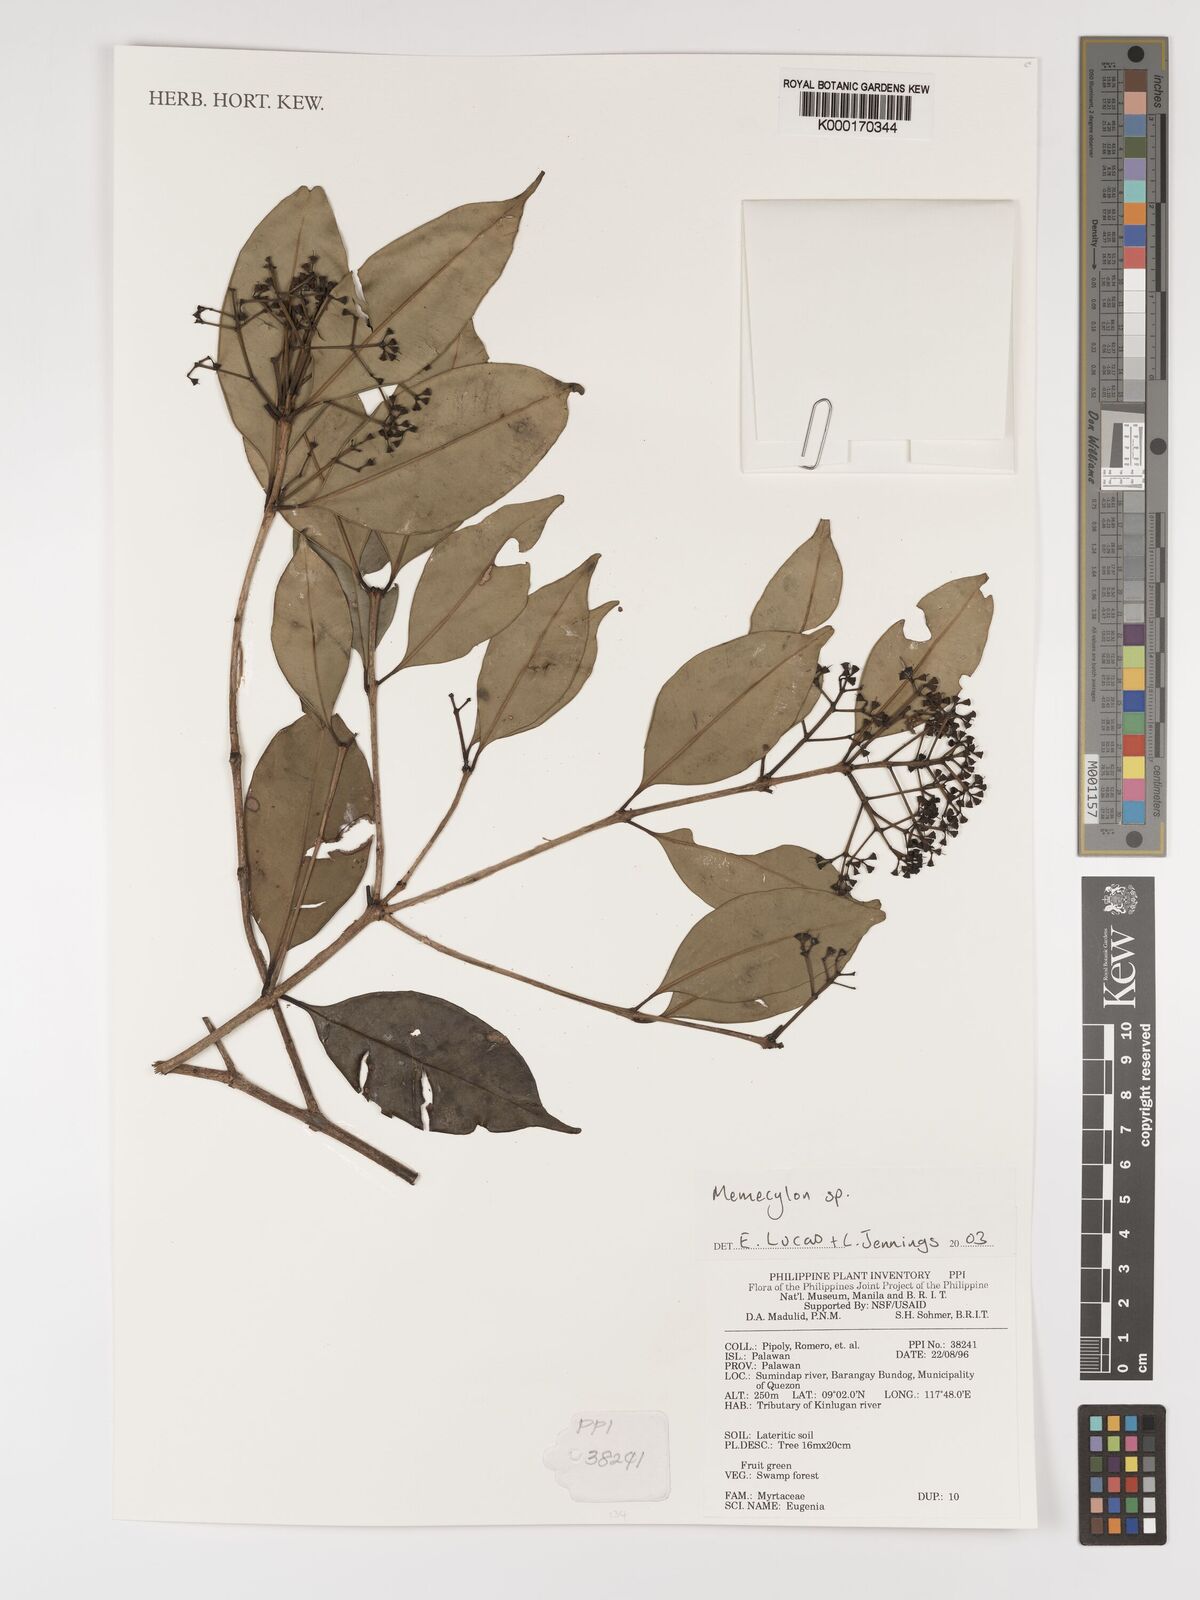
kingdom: Plantae
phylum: Tracheophyta
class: Magnoliopsida
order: Myrtales
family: Melastomataceae
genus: Memecylon
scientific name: Memecylon
